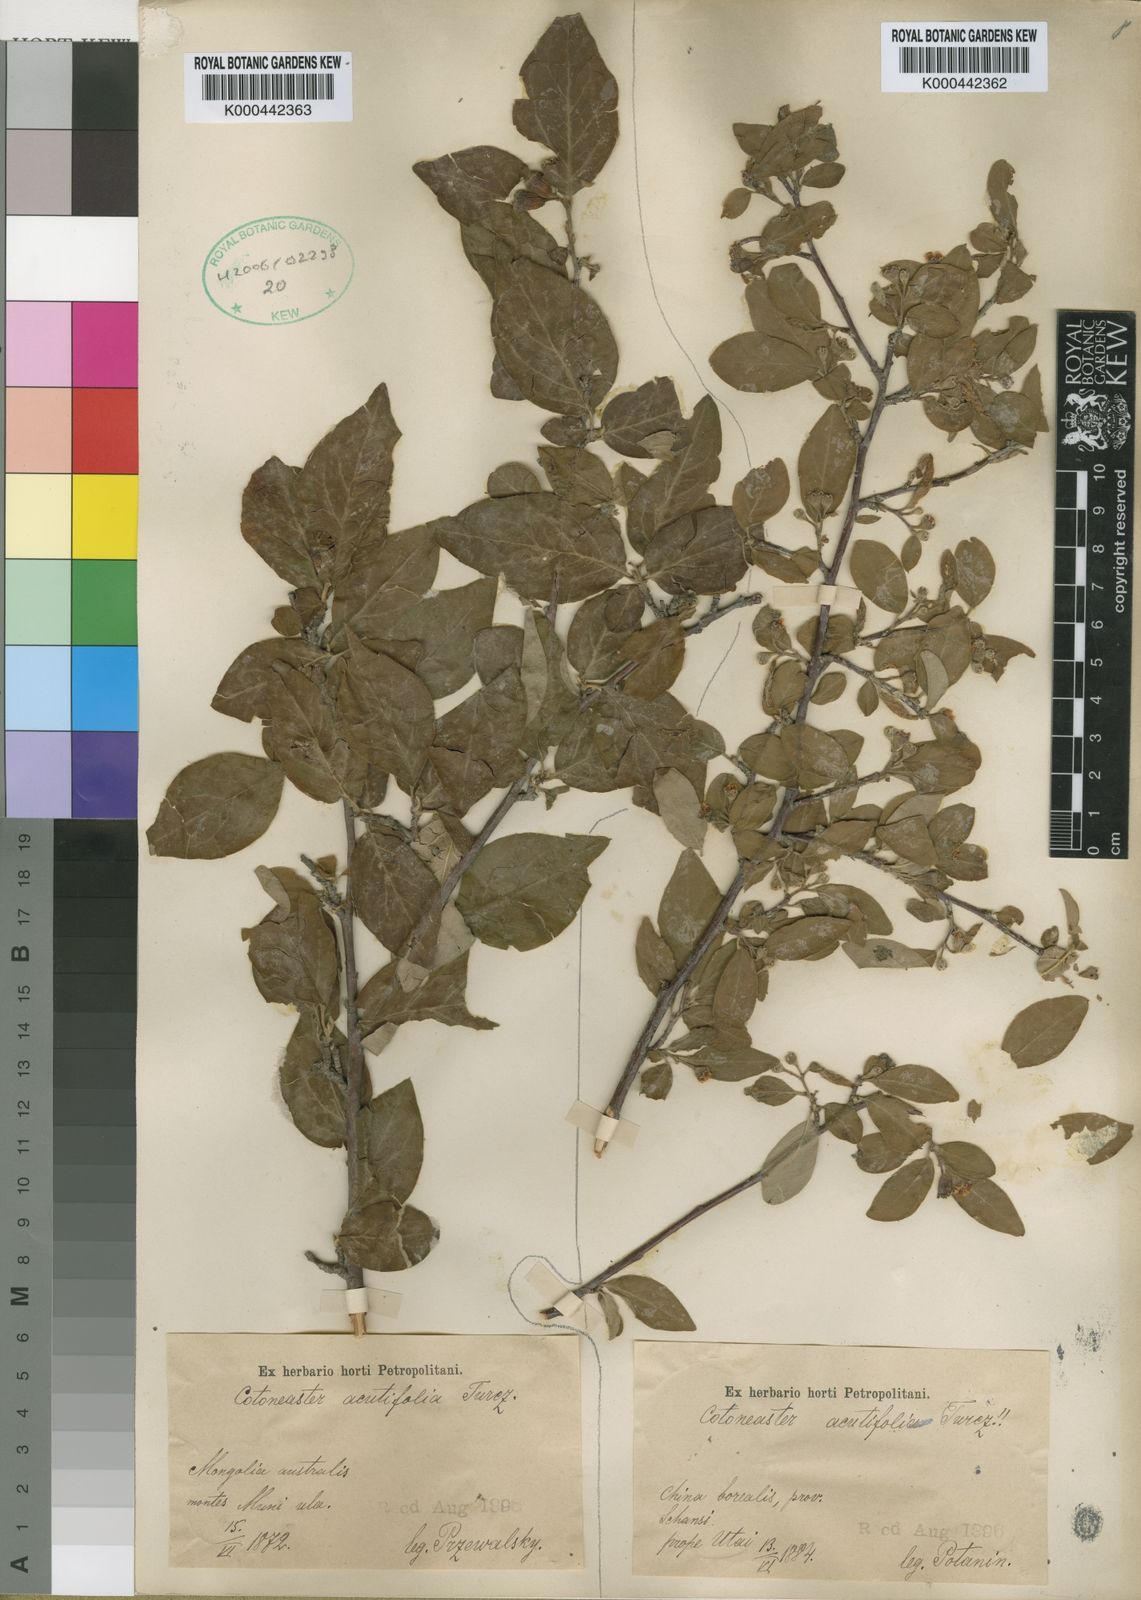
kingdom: Plantae
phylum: Tracheophyta
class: Magnoliopsida
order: Rosales
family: Rosaceae
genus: Cotoneaster
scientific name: Cotoneaster acutifolius
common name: Peking cotoneaster
